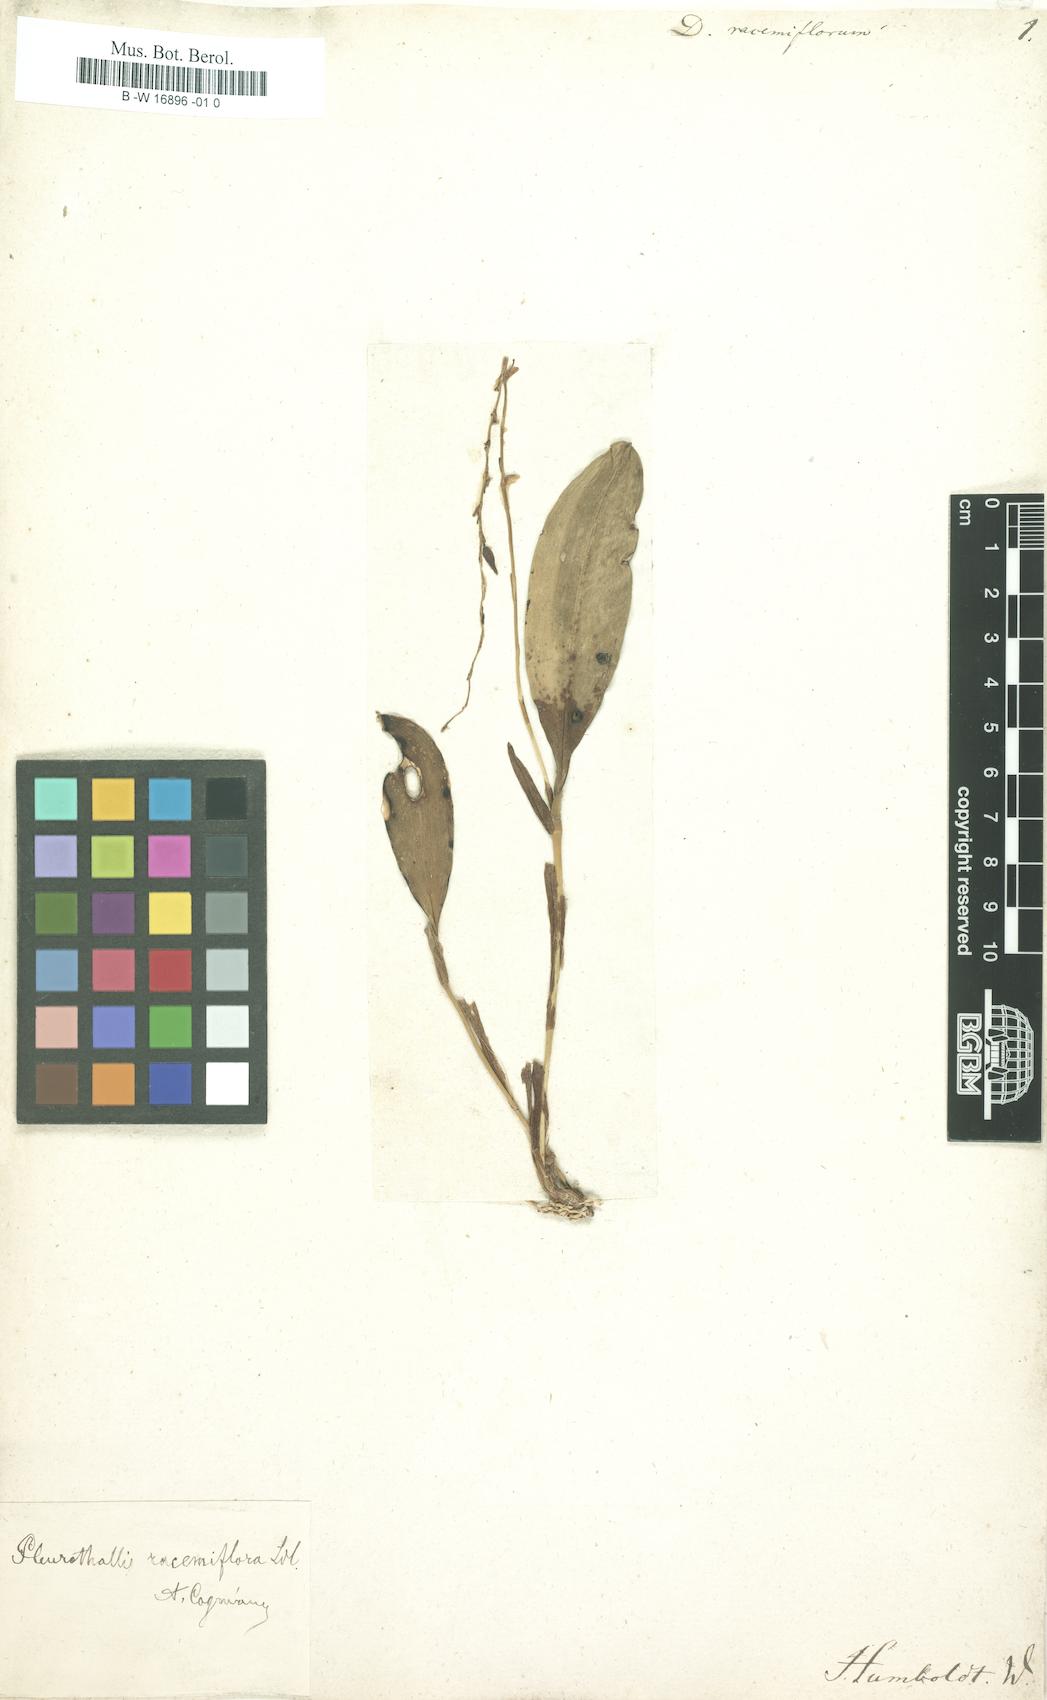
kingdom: Plantae
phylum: Tracheophyta
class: Liliopsida
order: Asparagales
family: Orchidaceae
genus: Stelis
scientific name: Stelis multirostris
